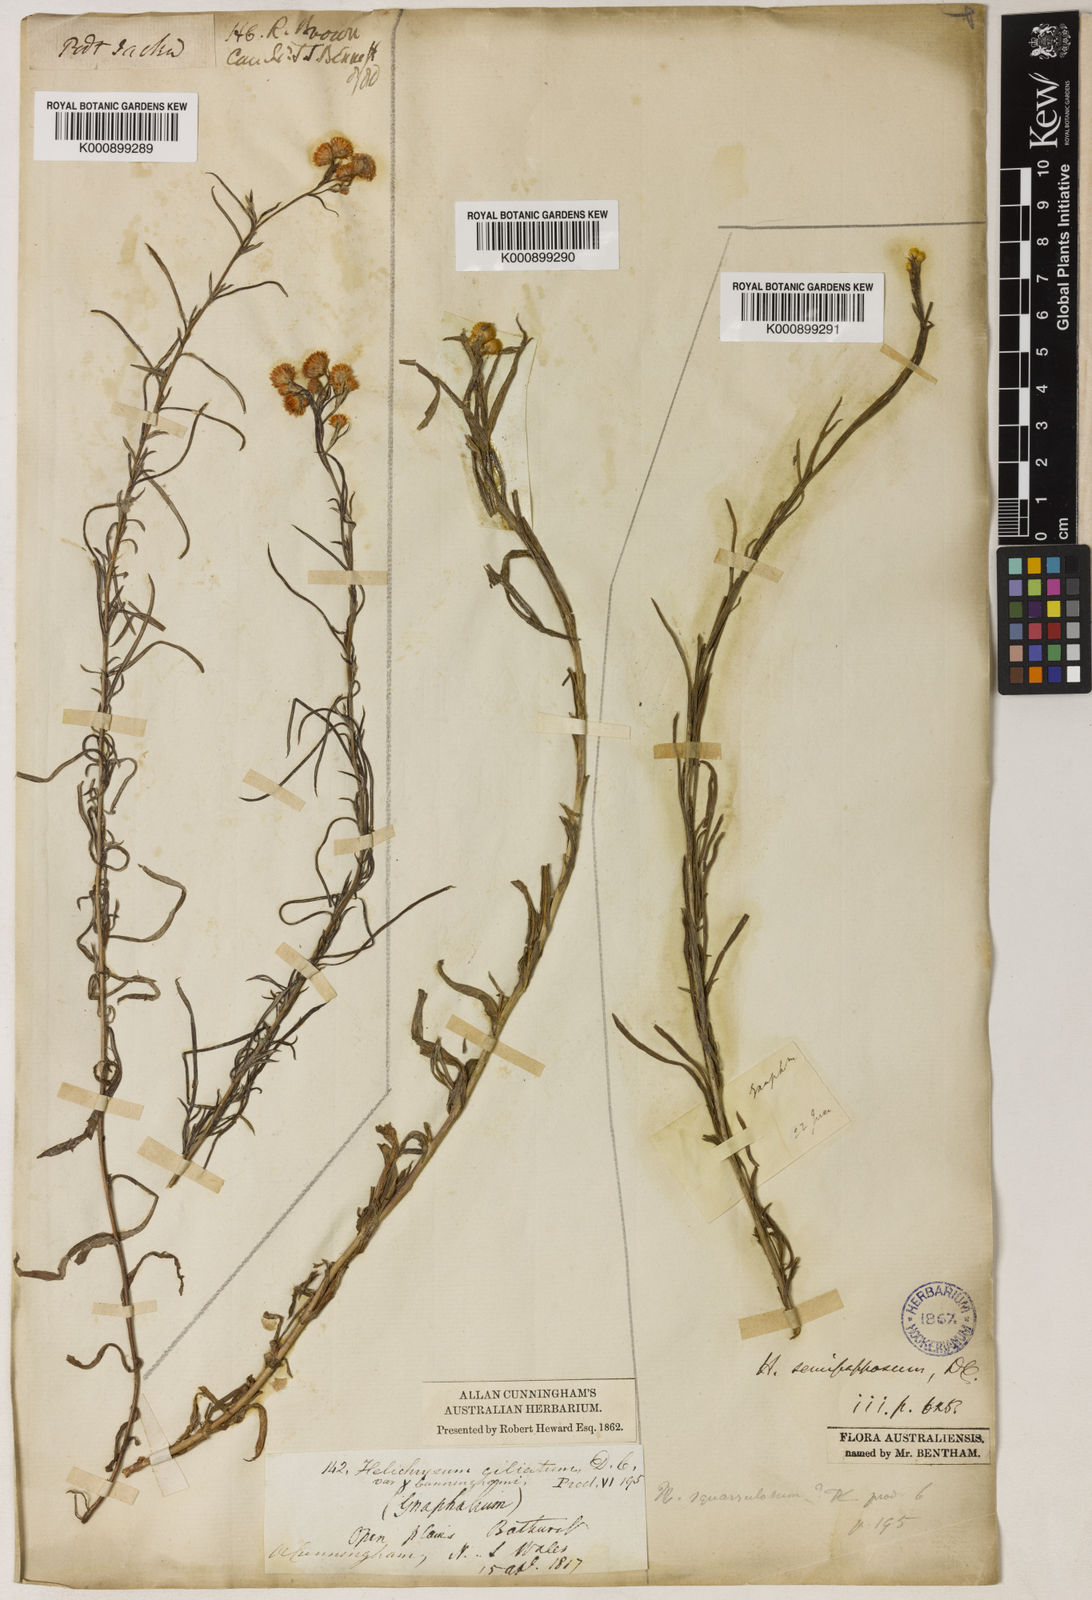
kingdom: Plantae
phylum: Tracheophyta
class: Magnoliopsida
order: Asterales
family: Asteraceae
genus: Chrysocephalum
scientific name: Chrysocephalum semipapposum
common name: Clustered everlasting
